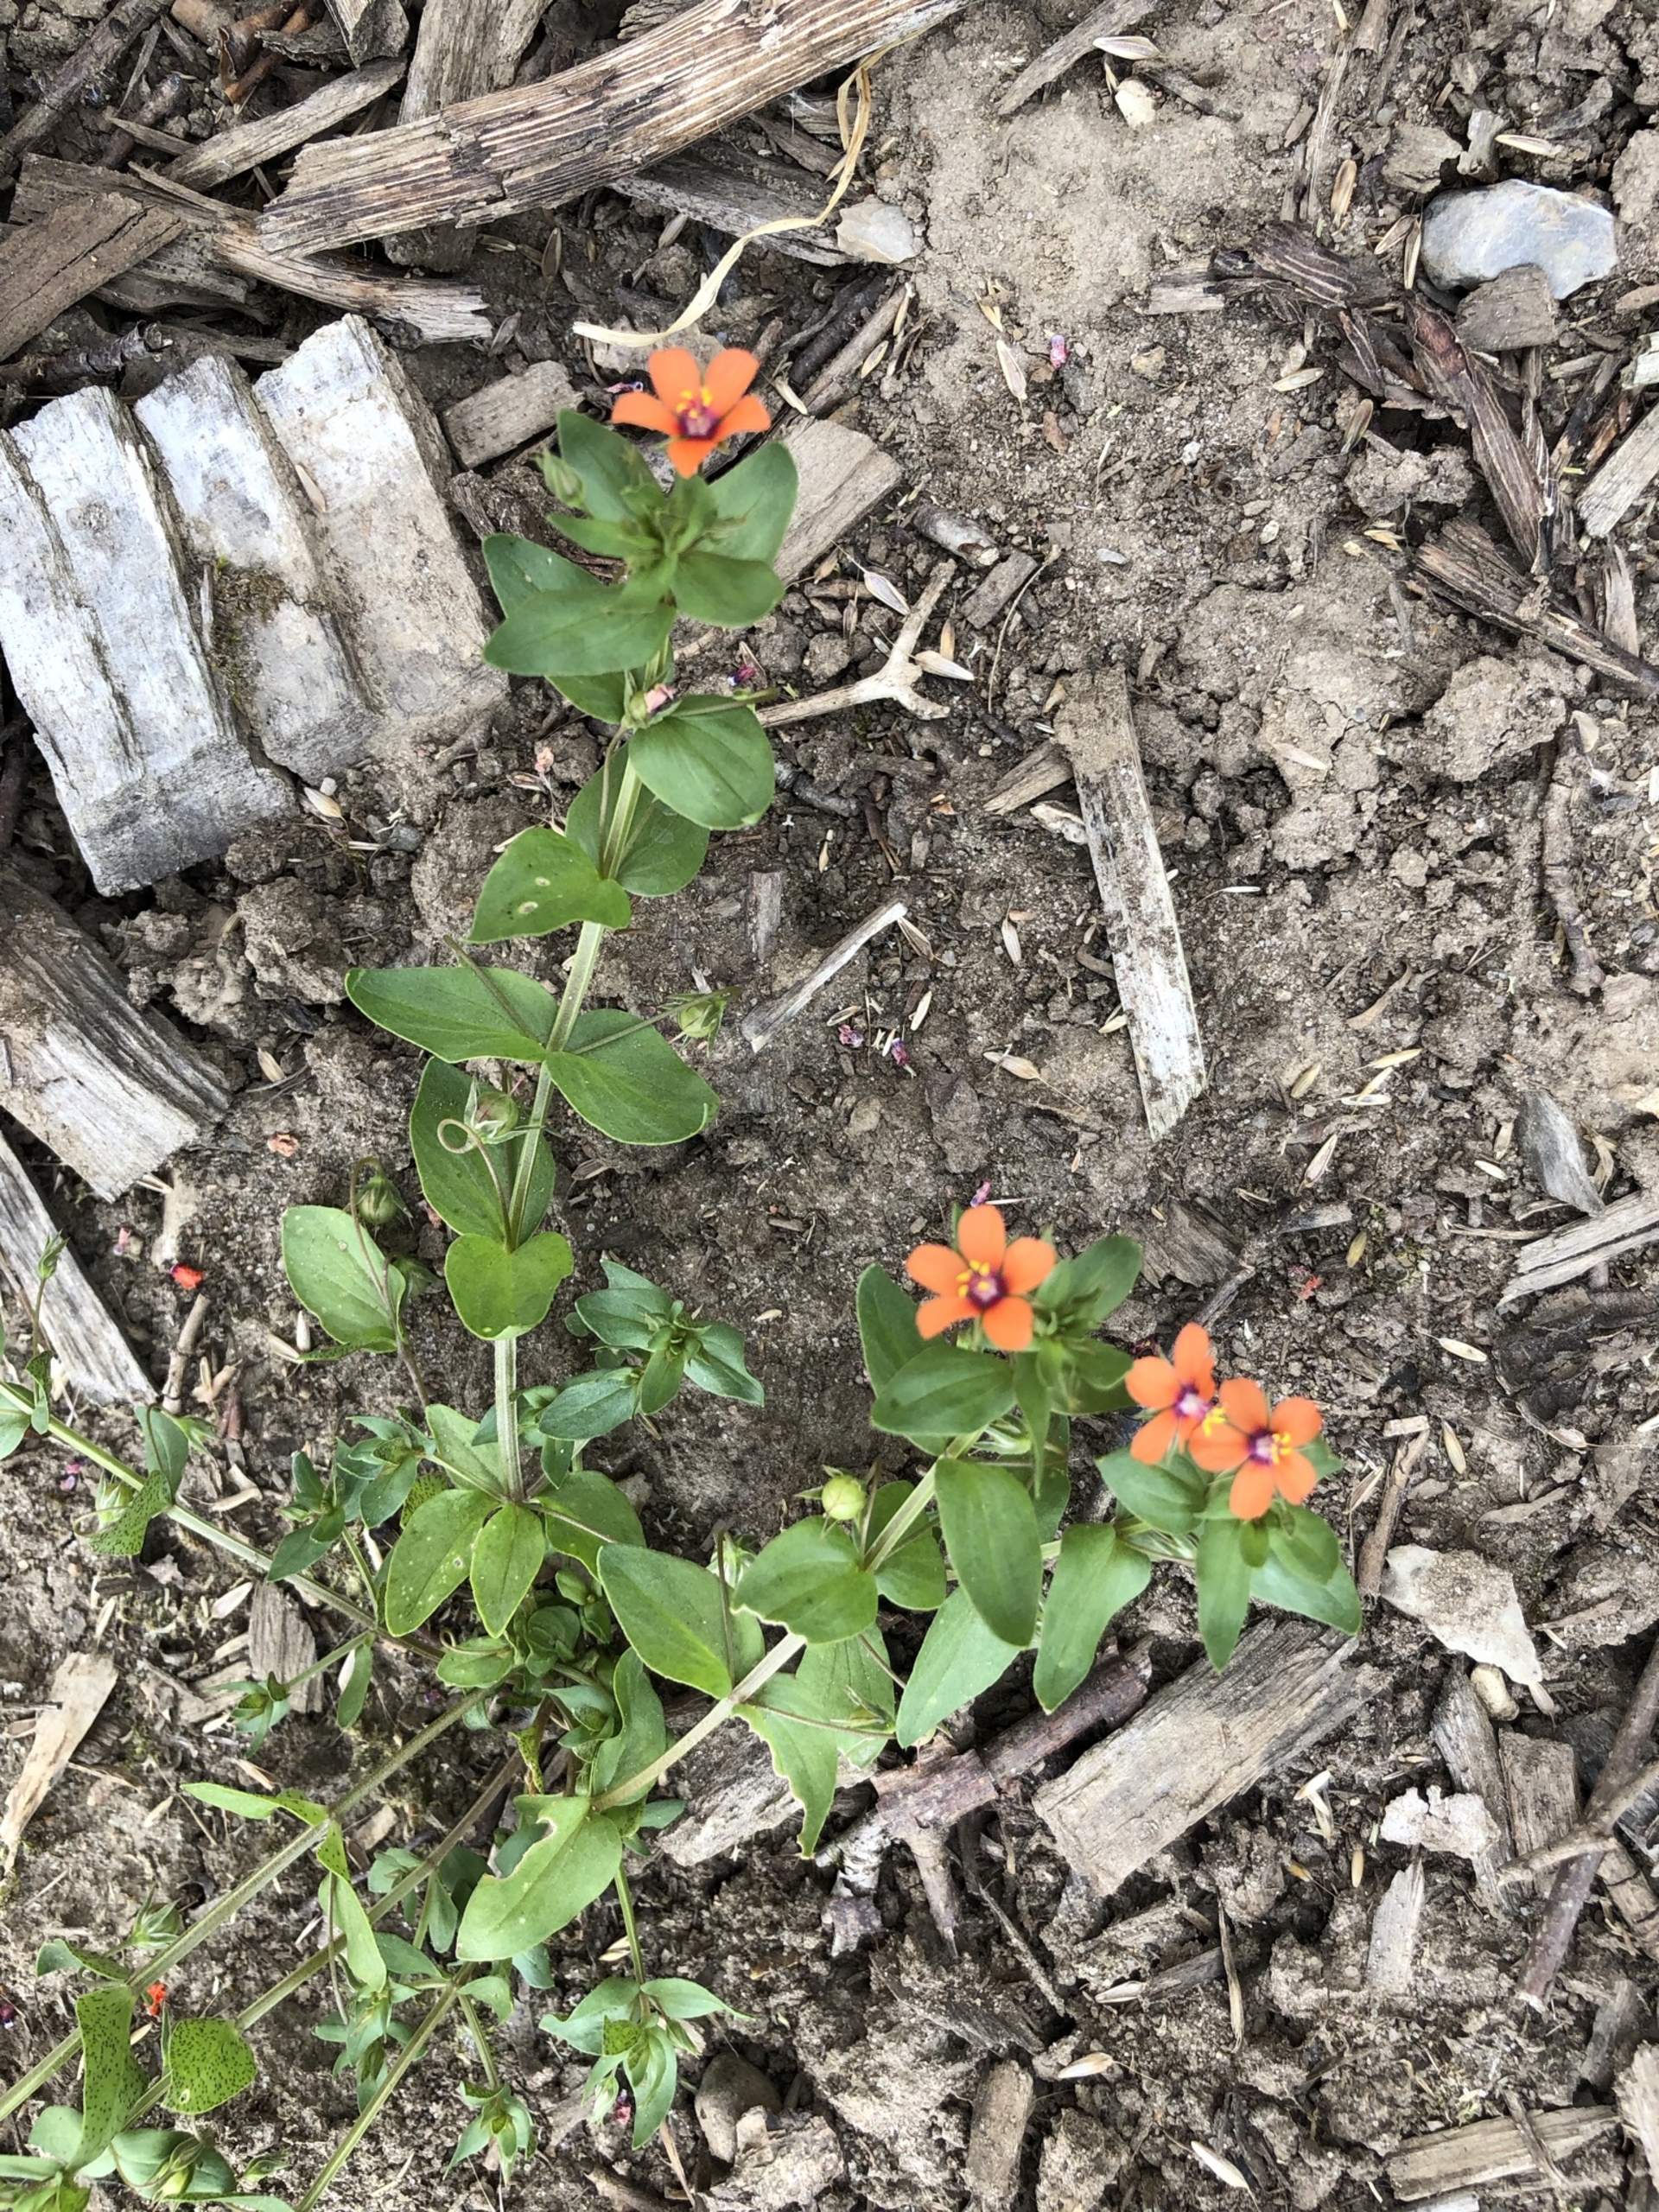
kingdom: Plantae
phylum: Tracheophyta
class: Magnoliopsida
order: Ericales
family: Primulaceae
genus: Lysimachia
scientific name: Lysimachia arvensis
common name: Rød arve
